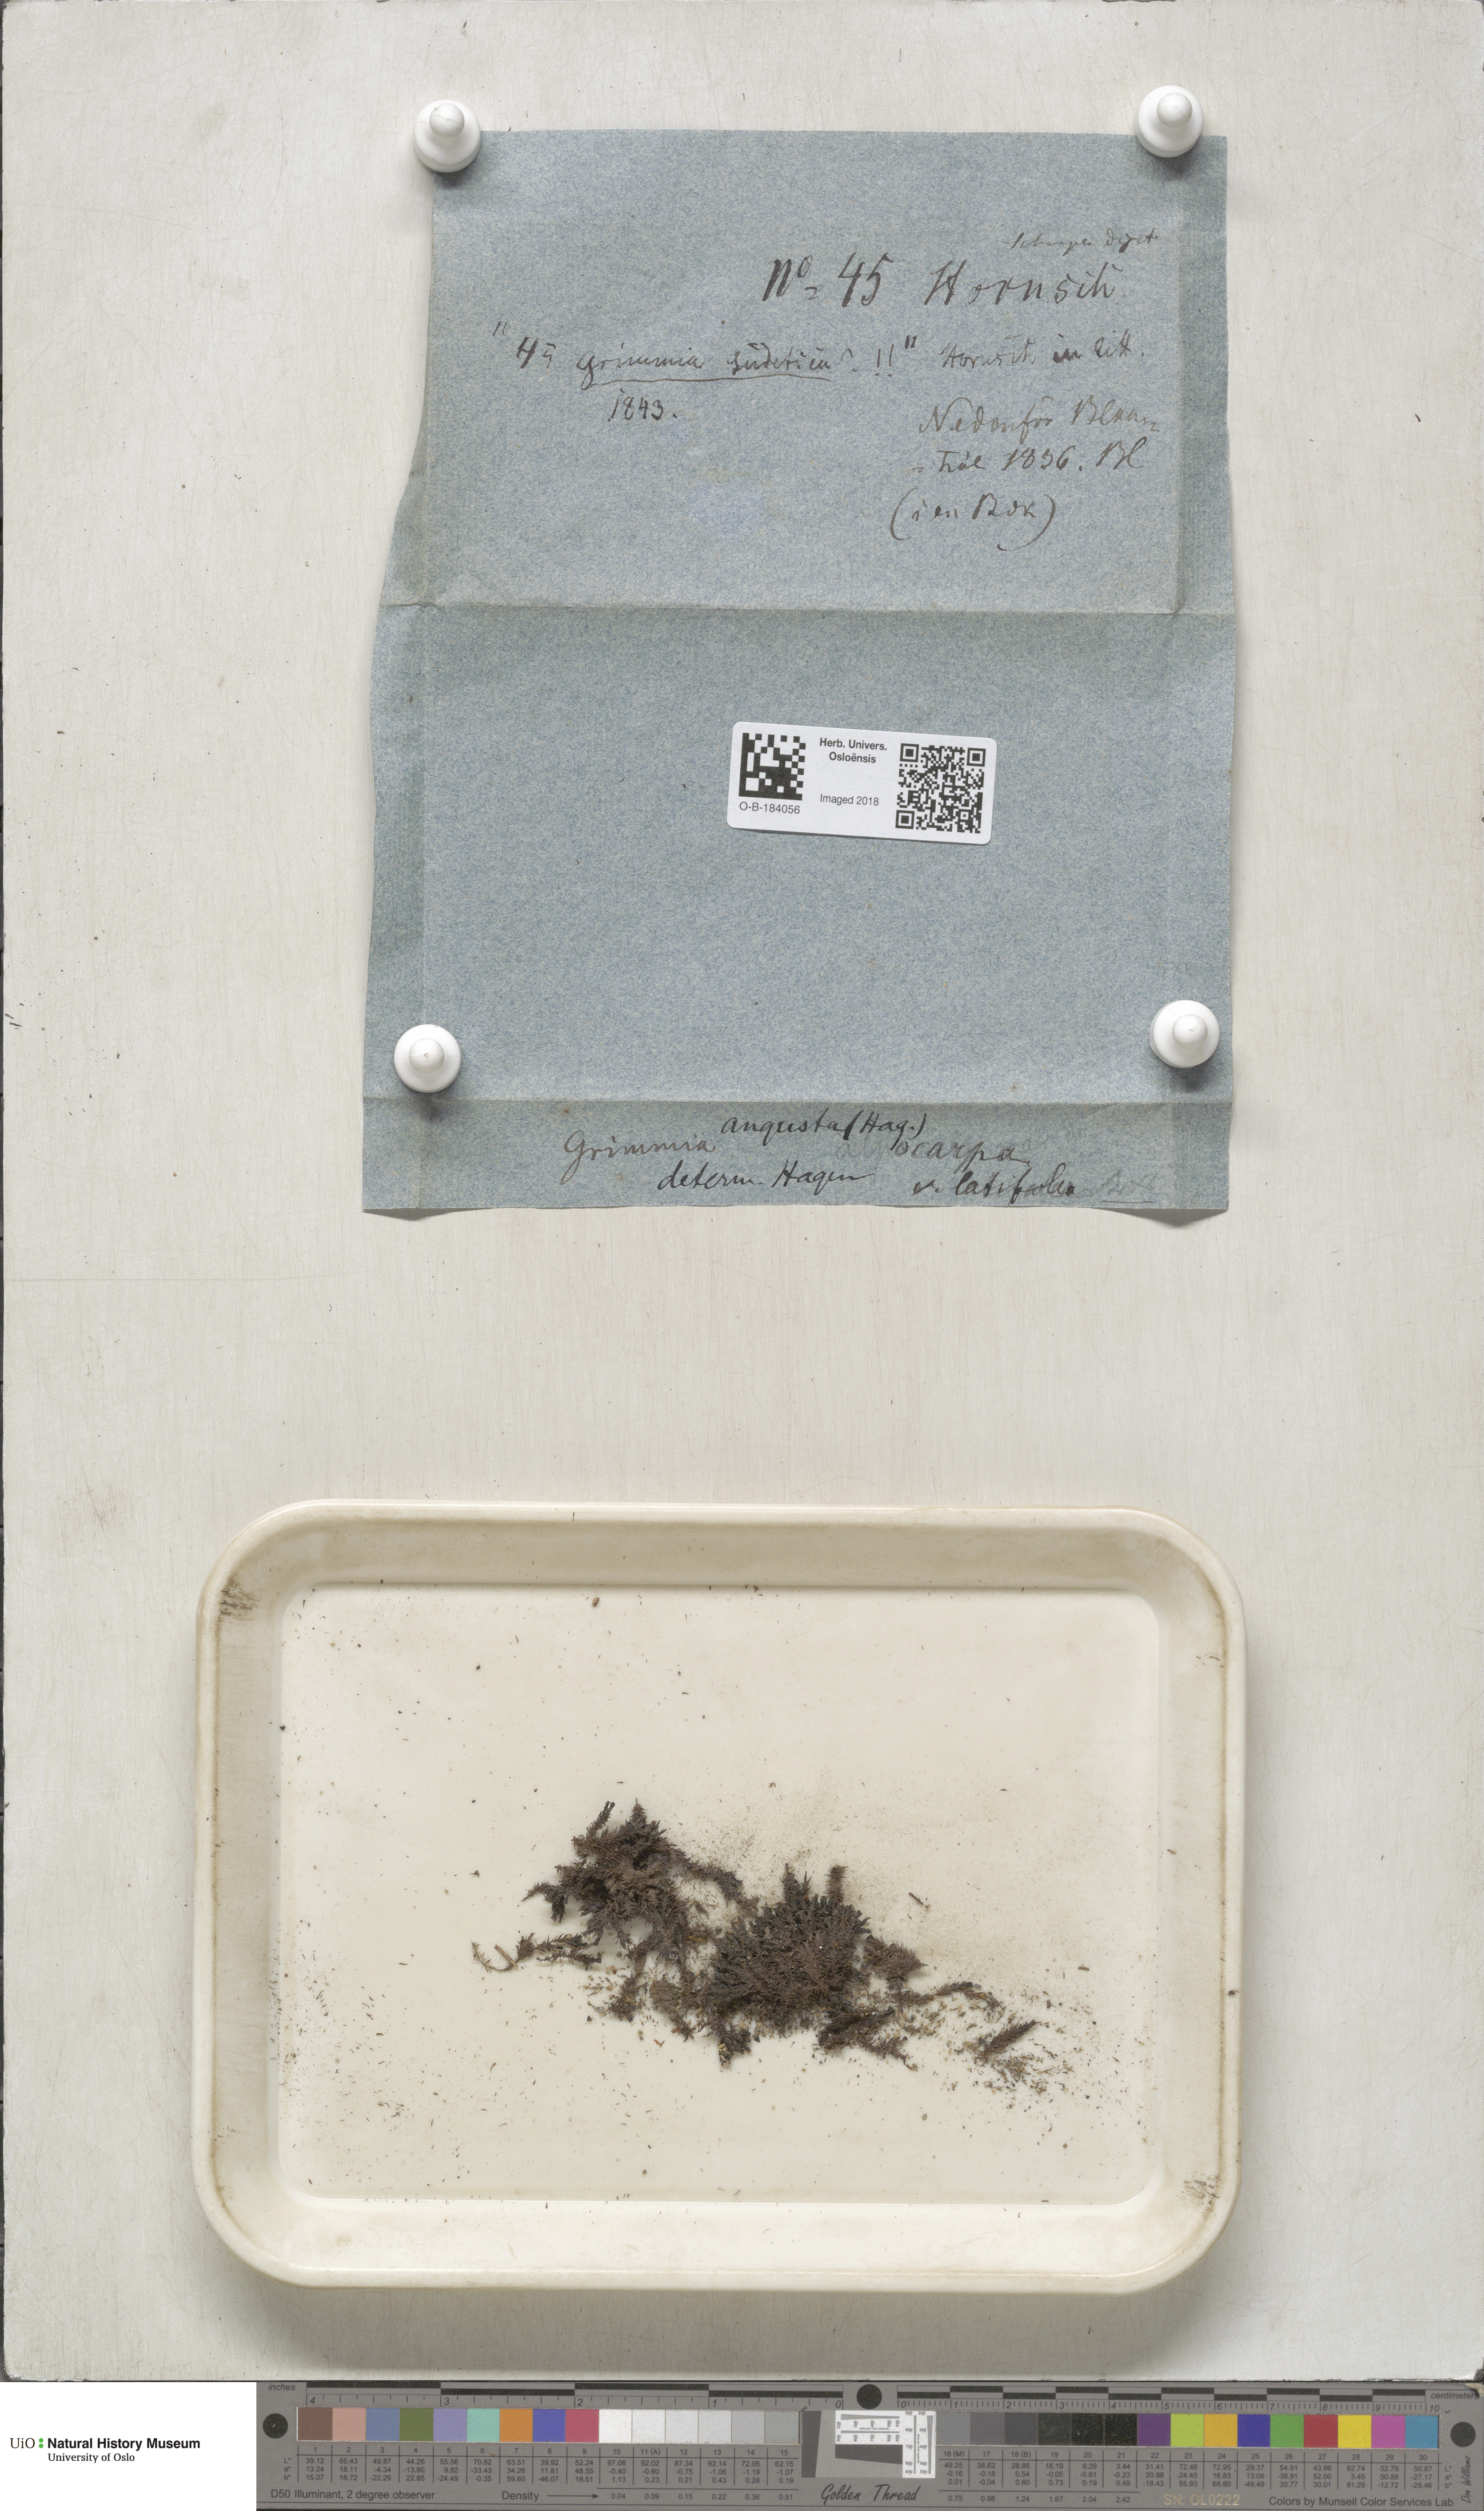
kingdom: Plantae
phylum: Bryophyta
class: Bryopsida
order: Grimmiales
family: Grimmiaceae
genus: Schistidium
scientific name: Schistidium agassizii
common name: Agassiz's bloom moss
